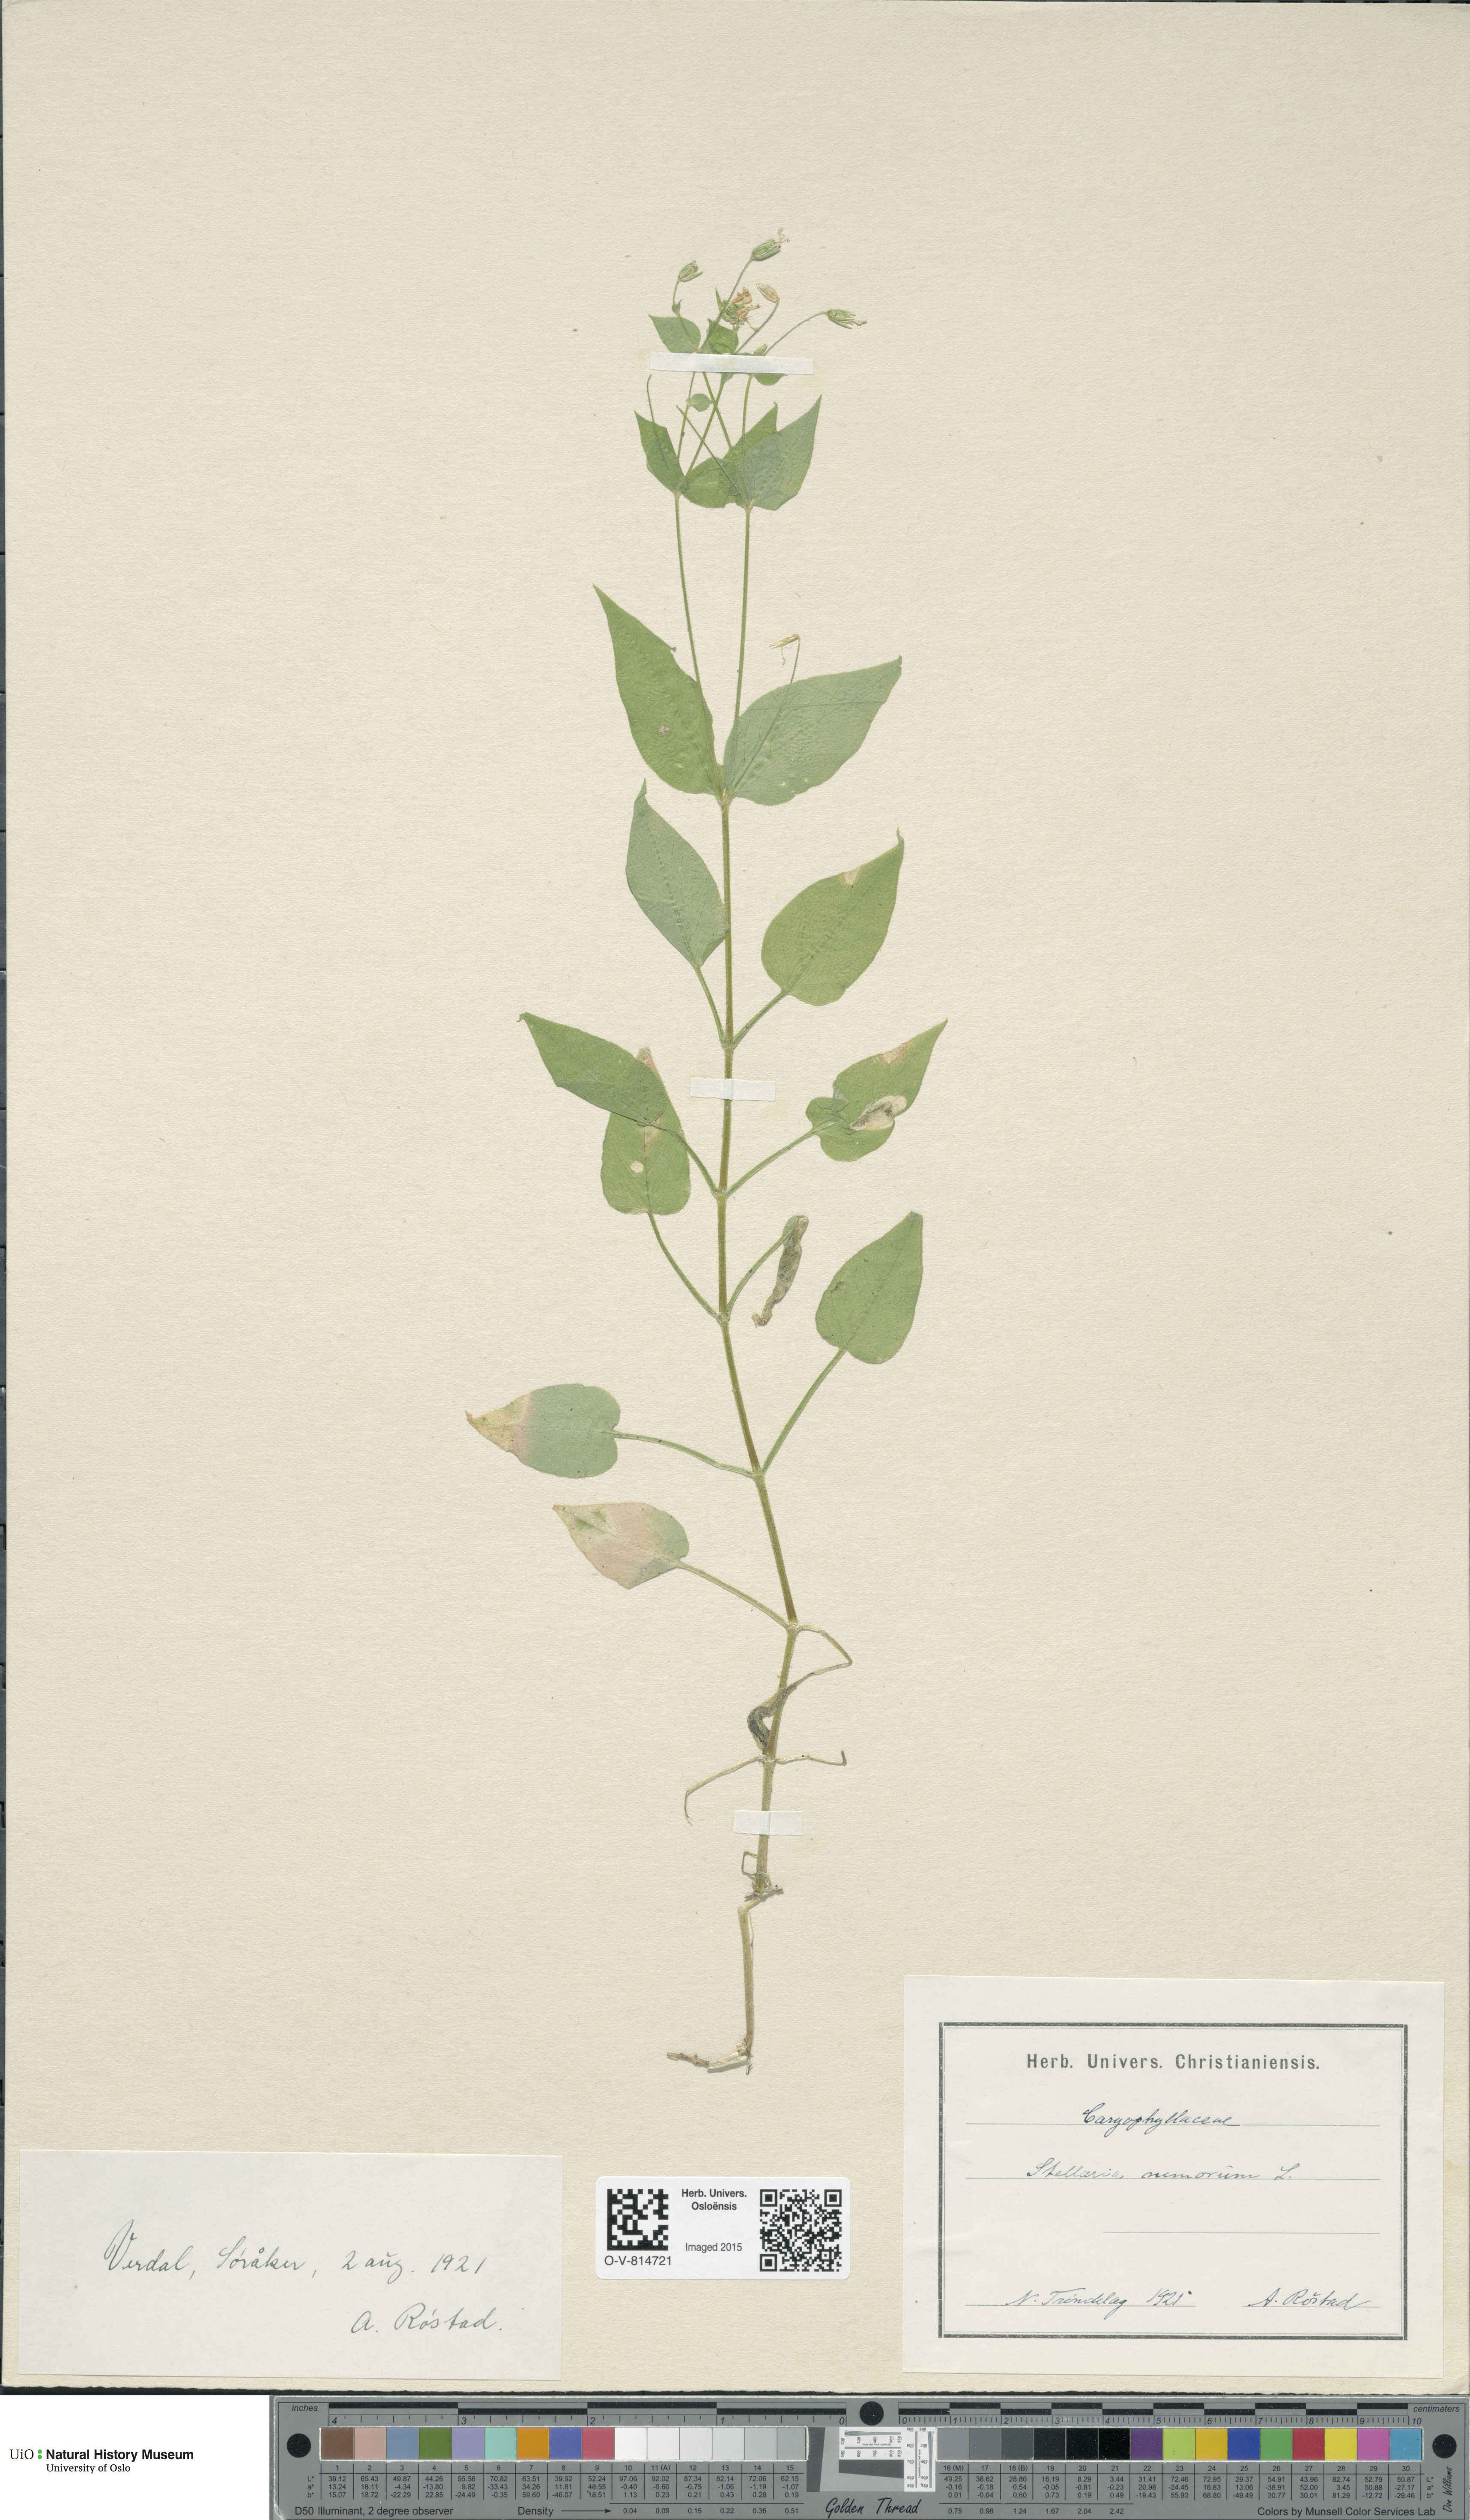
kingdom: Plantae
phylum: Tracheophyta
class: Magnoliopsida
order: Caryophyllales
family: Caryophyllaceae
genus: Stellaria
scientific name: Stellaria nemorum
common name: Wood stitchwort
